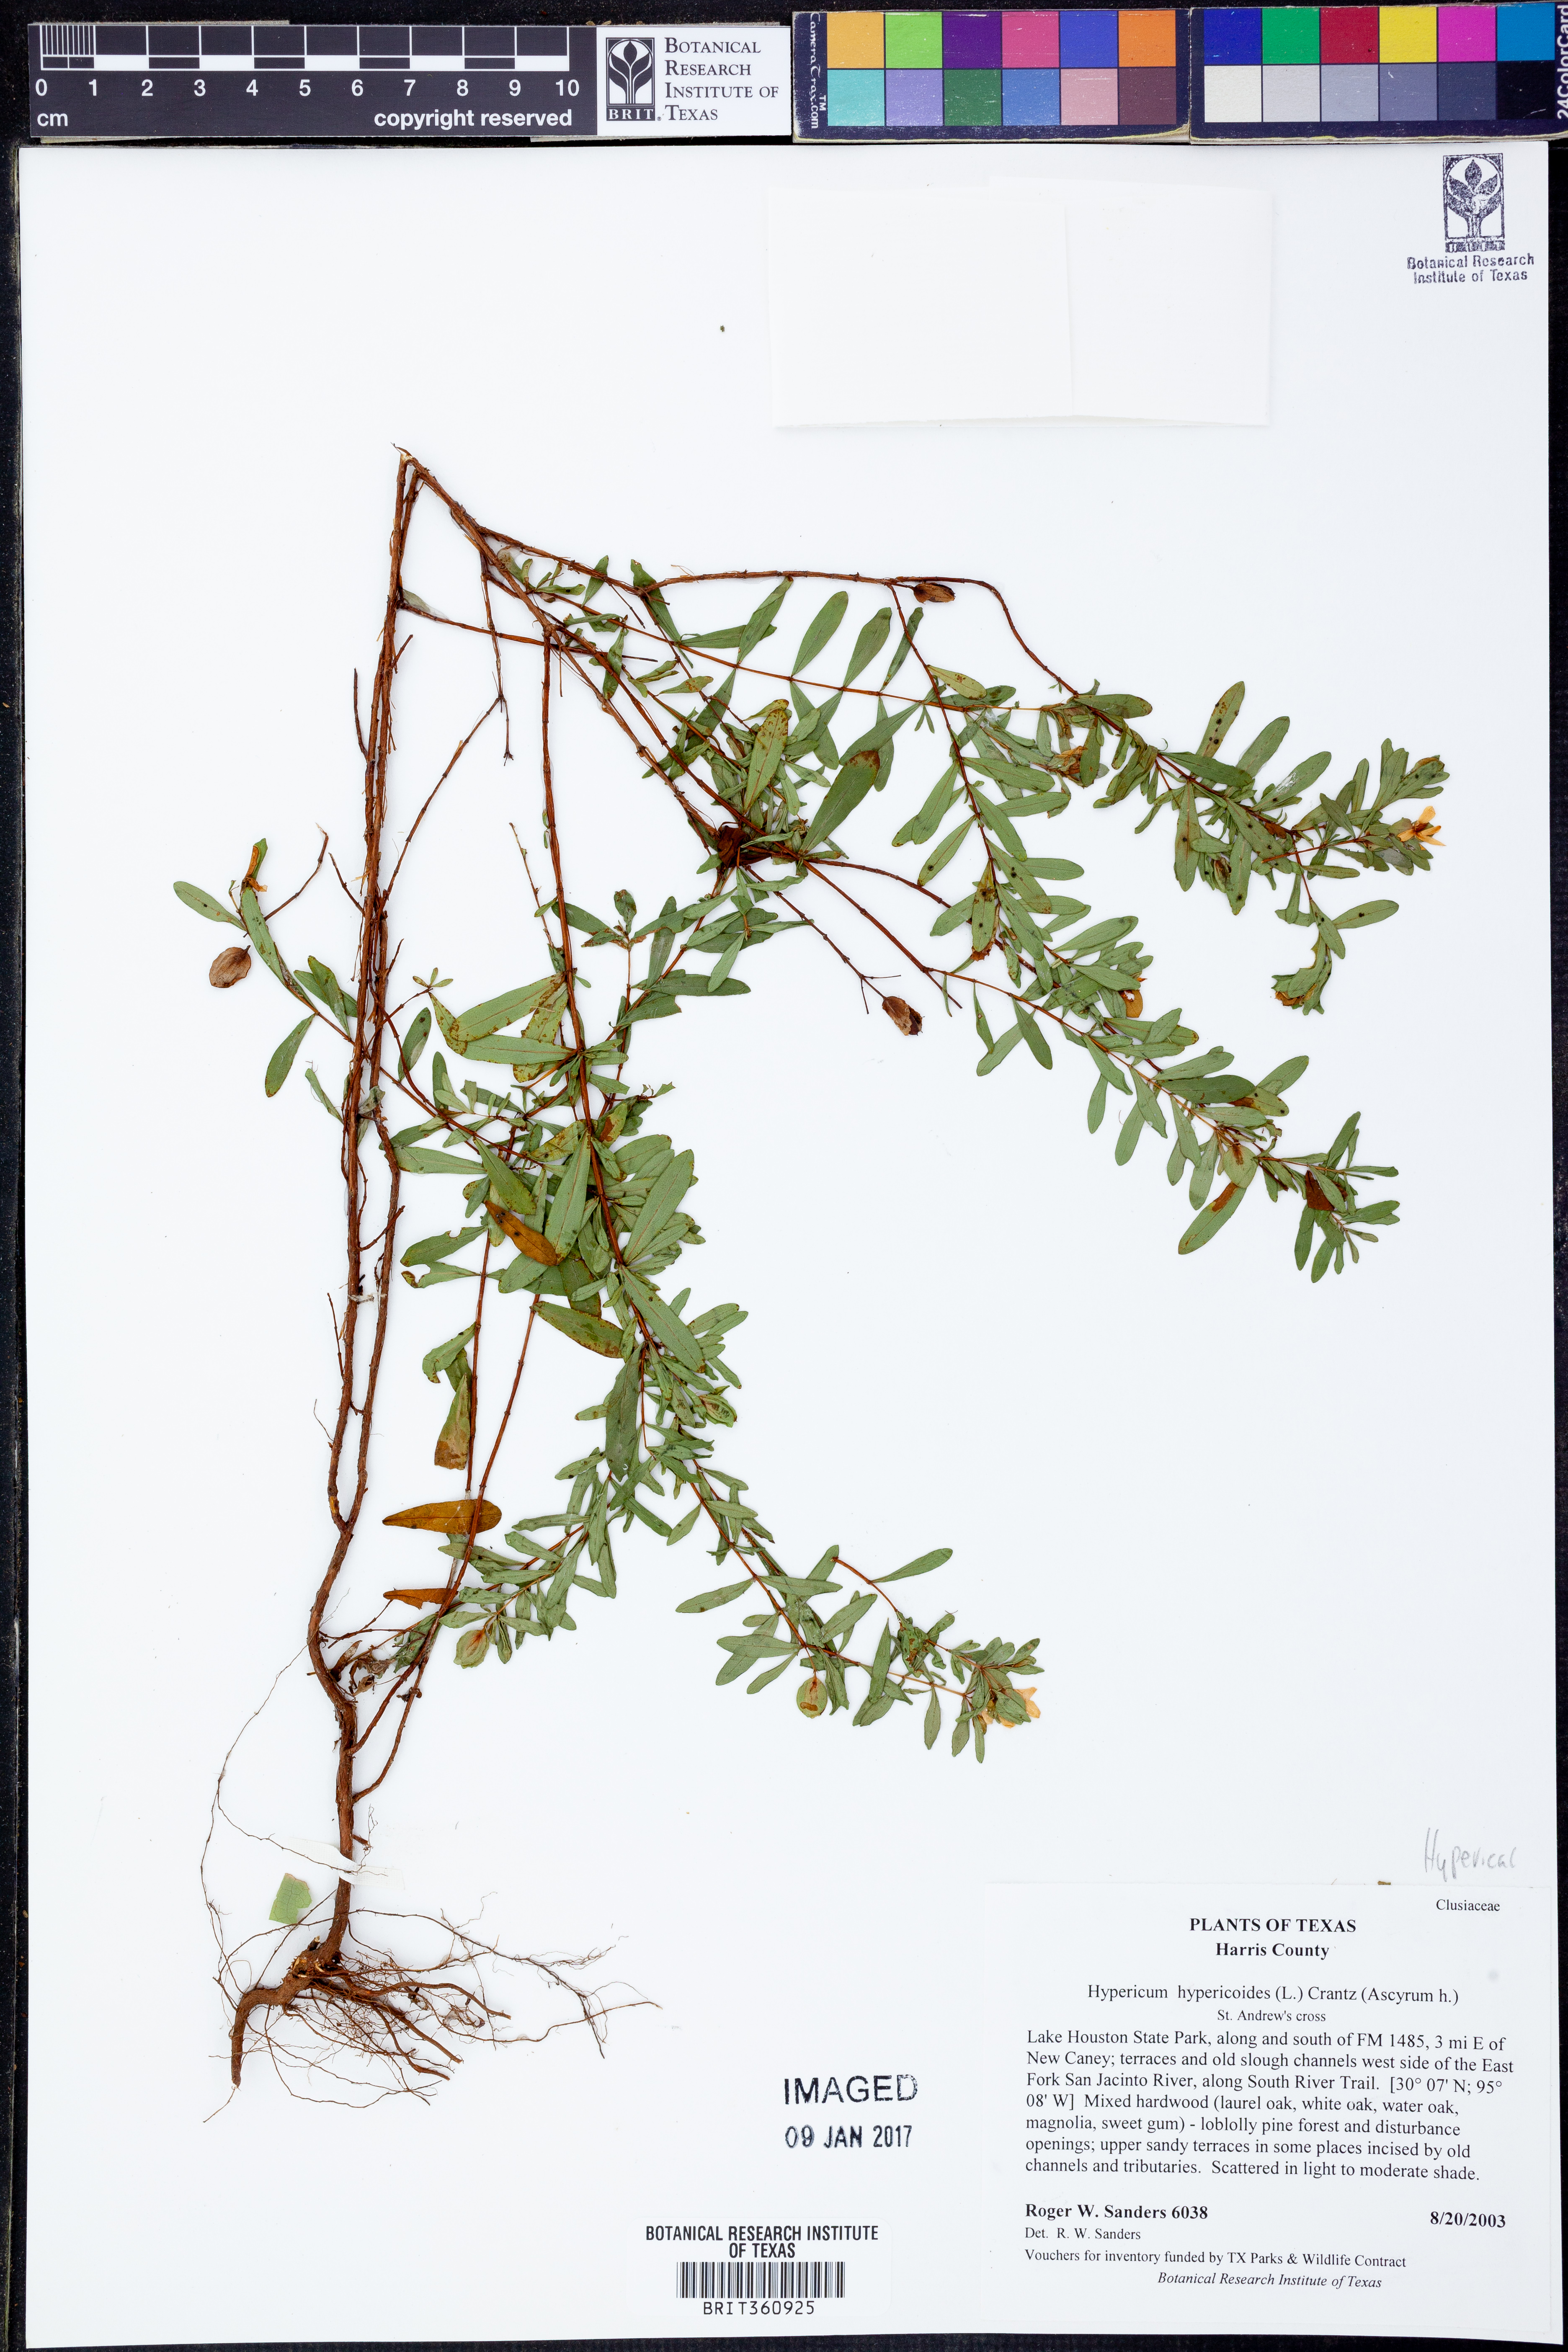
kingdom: Plantae
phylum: Tracheophyta
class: Magnoliopsida
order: Malpighiales
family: Hypericaceae
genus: Hypericum
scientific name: Hypericum hypericoides
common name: St. andrew's cross
